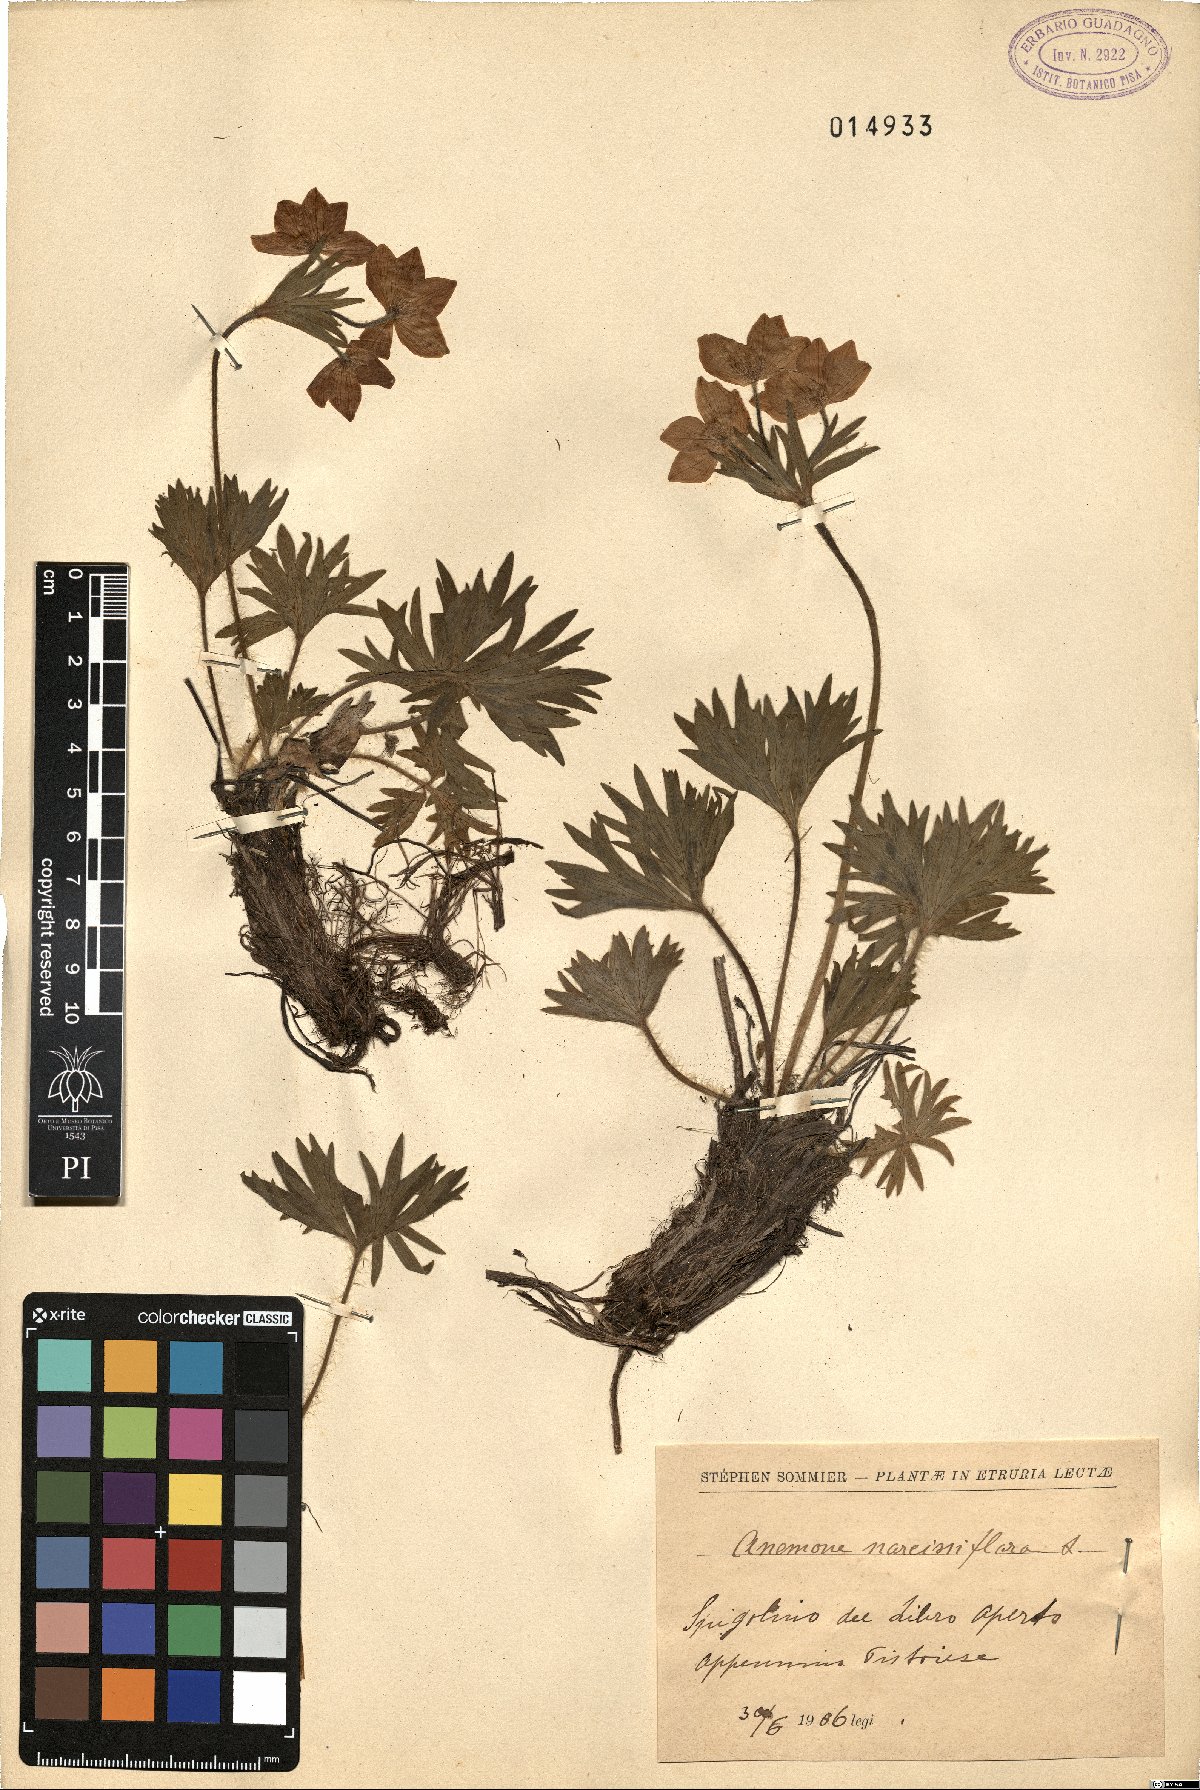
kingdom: Plantae
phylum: Tracheophyta
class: Magnoliopsida
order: Ranunculales
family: Ranunculaceae
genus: Anemonastrum
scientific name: Anemonastrum narcissiflorum
